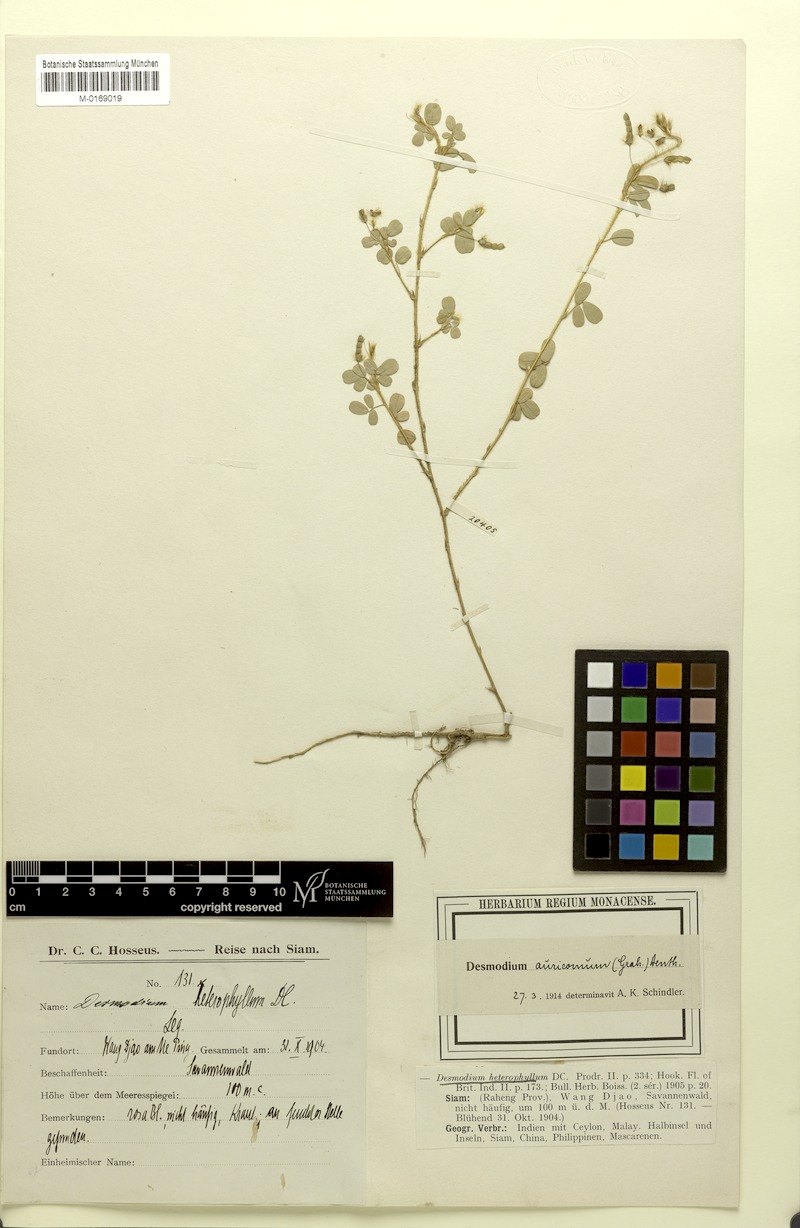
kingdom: Plantae
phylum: Tracheophyta
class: Magnoliopsida
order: Fabales
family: Fabaceae
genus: Grona
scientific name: Grona auricoma
